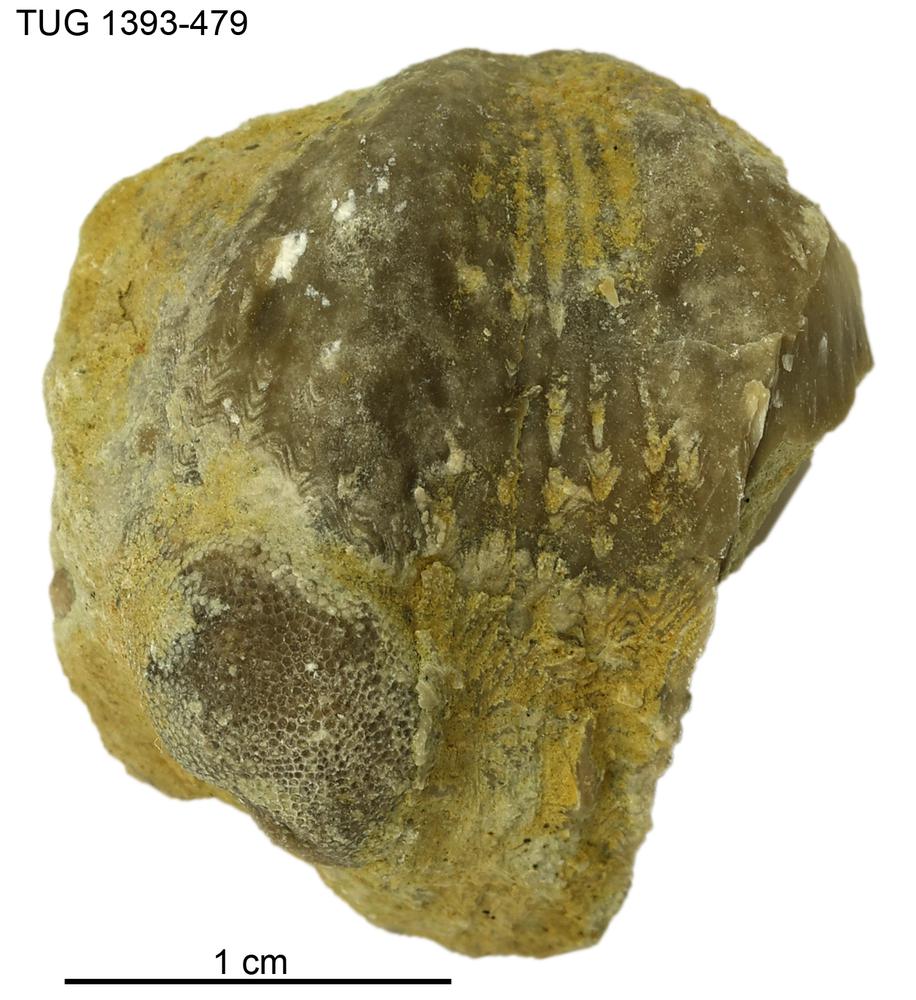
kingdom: Animalia
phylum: Brachiopoda
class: Rhynchonellata
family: Plectorthidae
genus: Platystrophia
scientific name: Platystrophia
